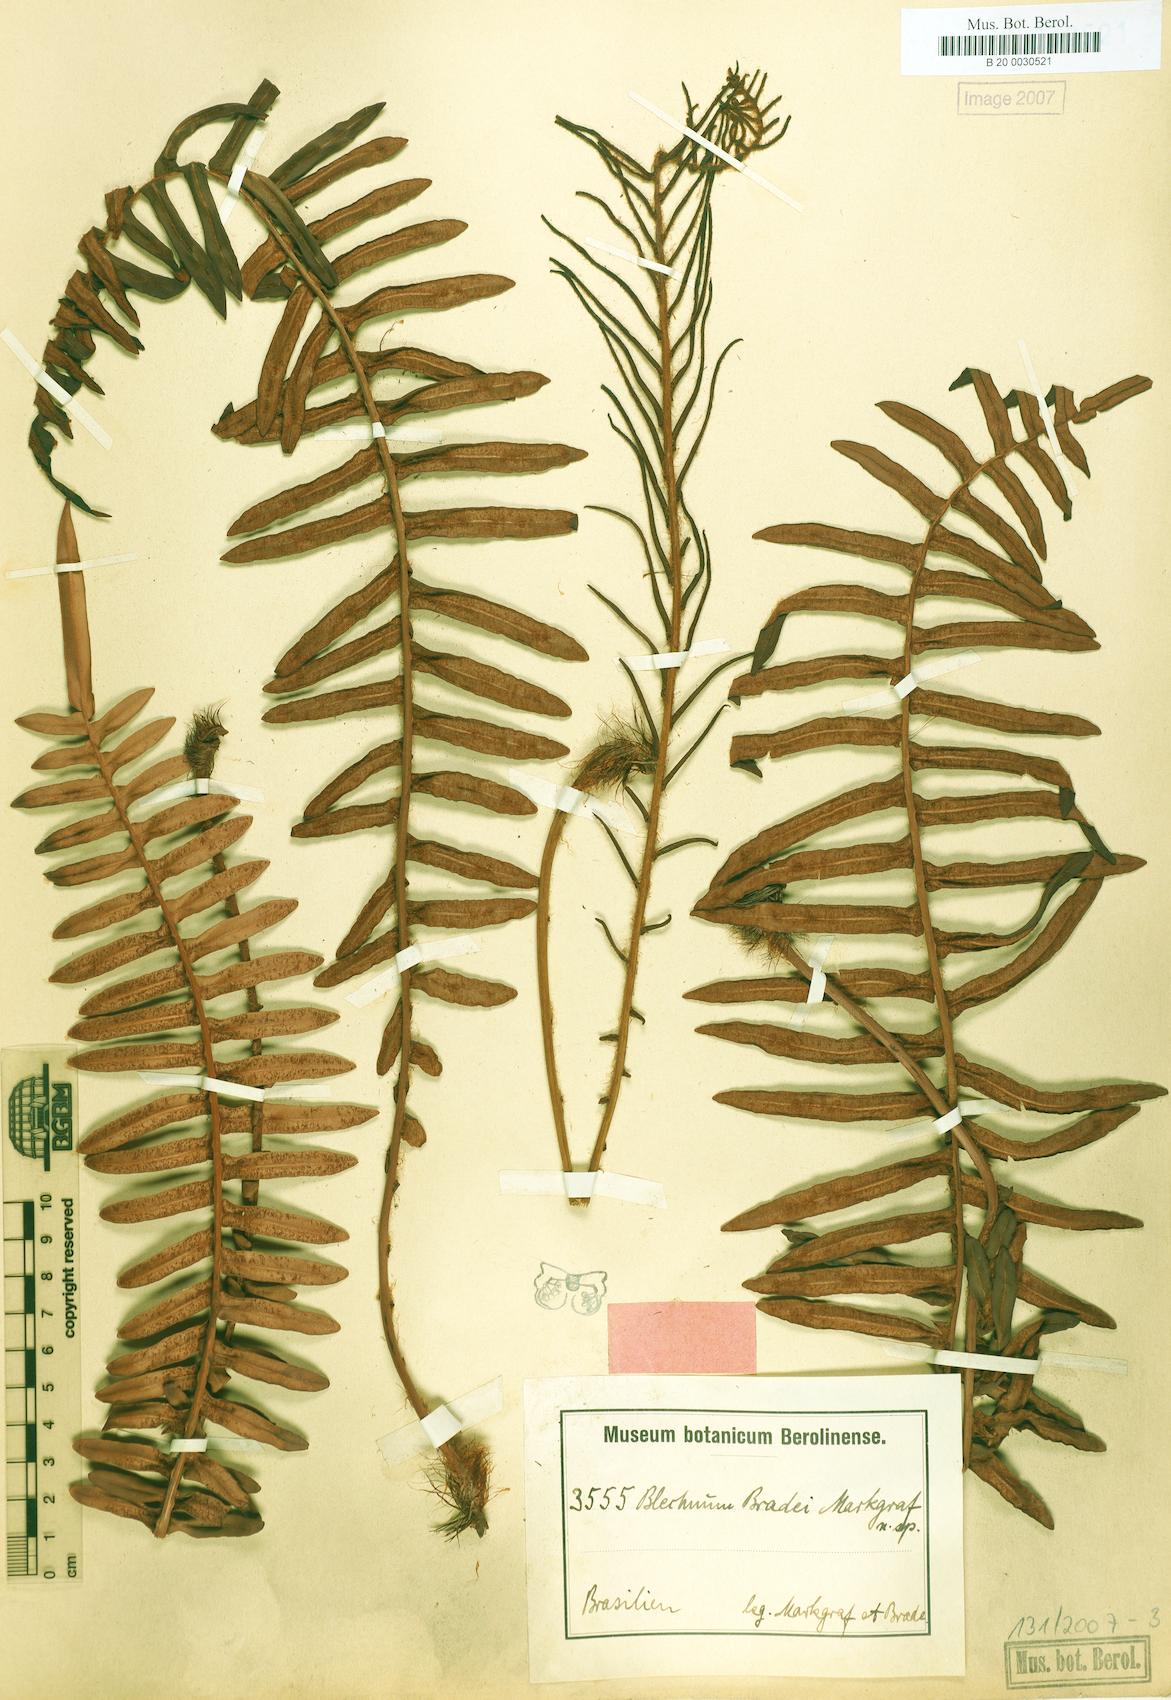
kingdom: Plantae
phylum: Tracheophyta
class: Polypodiopsida
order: Polypodiales
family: Blechnaceae
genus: Lomariocycas
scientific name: Lomariocycas schomburgkii
